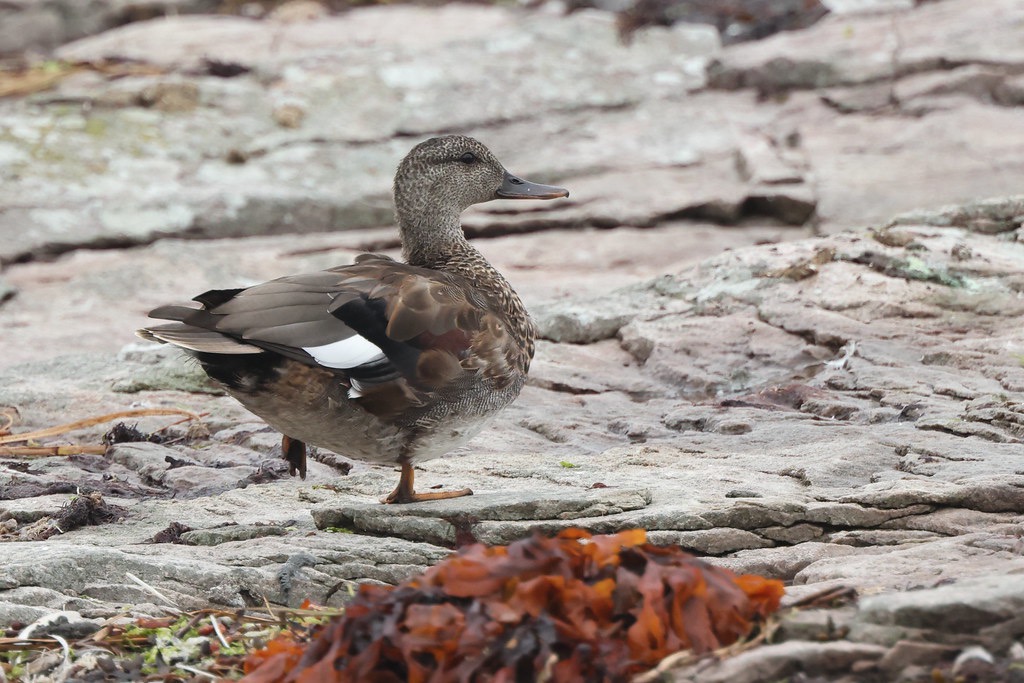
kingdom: Animalia
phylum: Chordata
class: Aves
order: Anseriformes
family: Anatidae
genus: Mareca
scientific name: Mareca strepera
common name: Knarand
